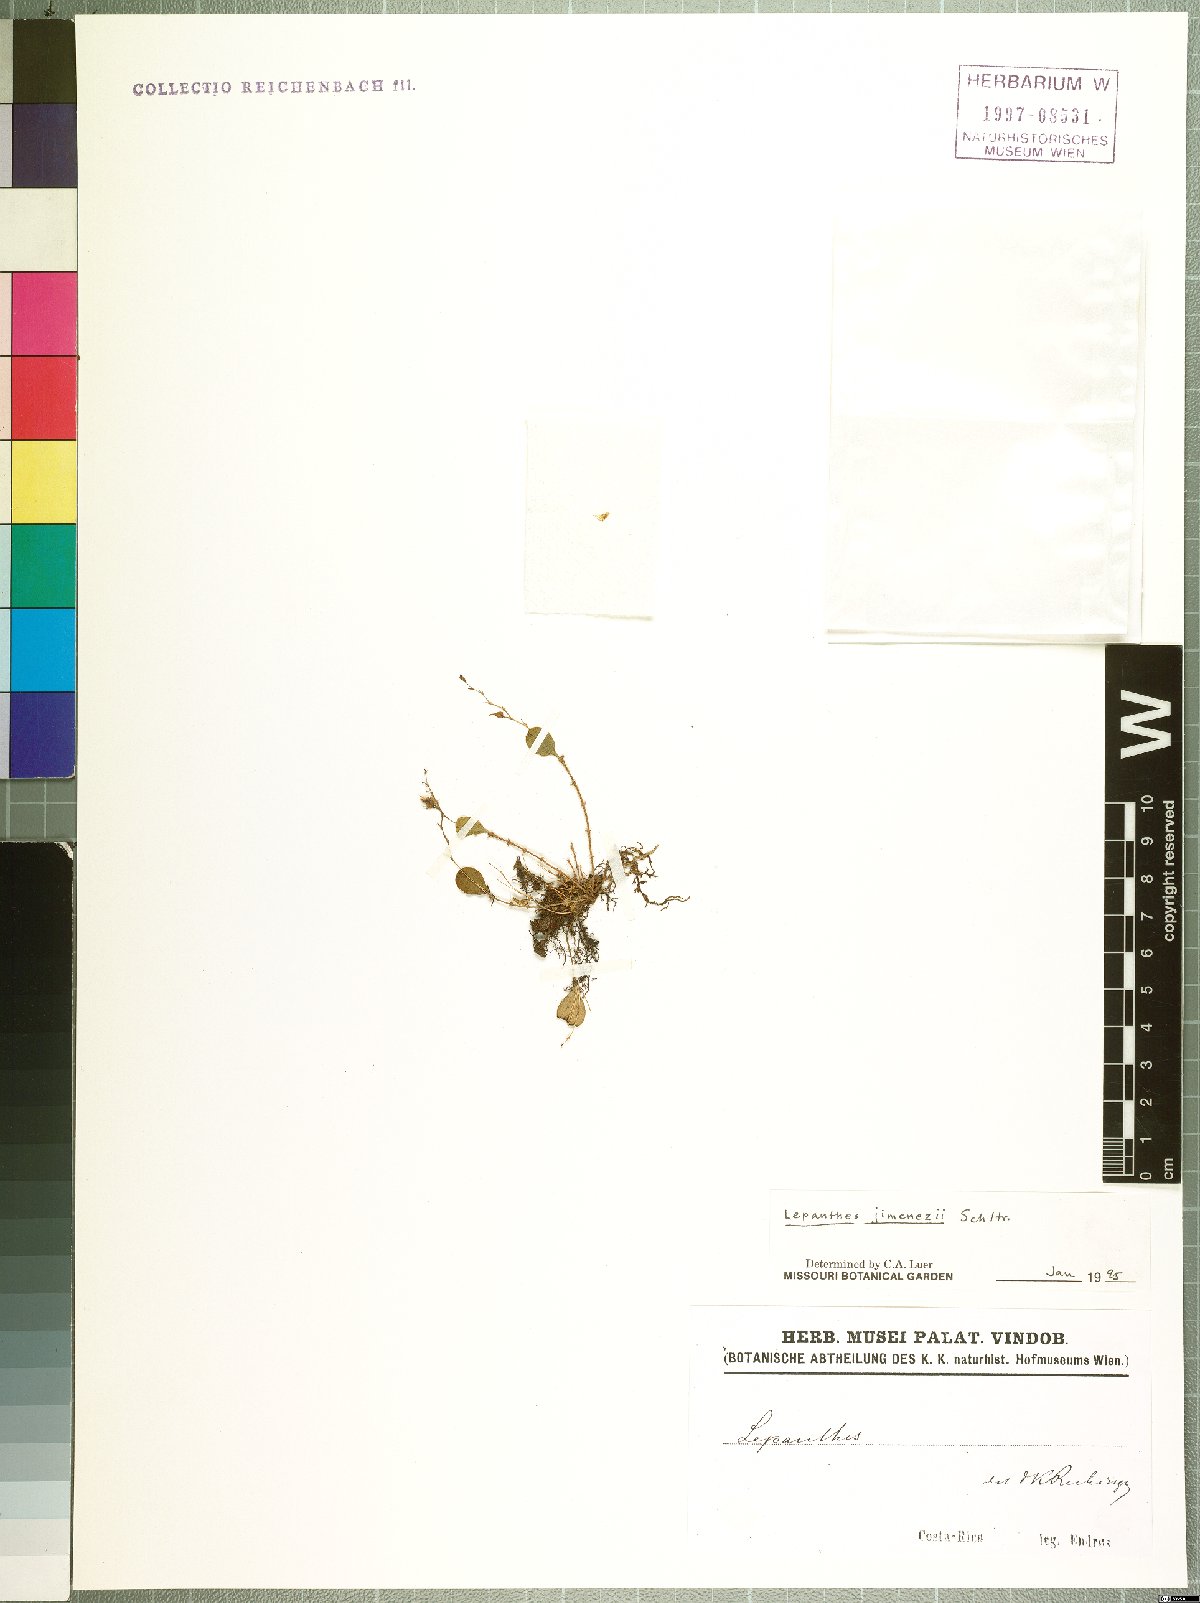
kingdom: Plantae
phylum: Tracheophyta
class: Liliopsida
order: Asparagales
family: Orchidaceae
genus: Lepanthes
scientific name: Lepanthes jimenezii
